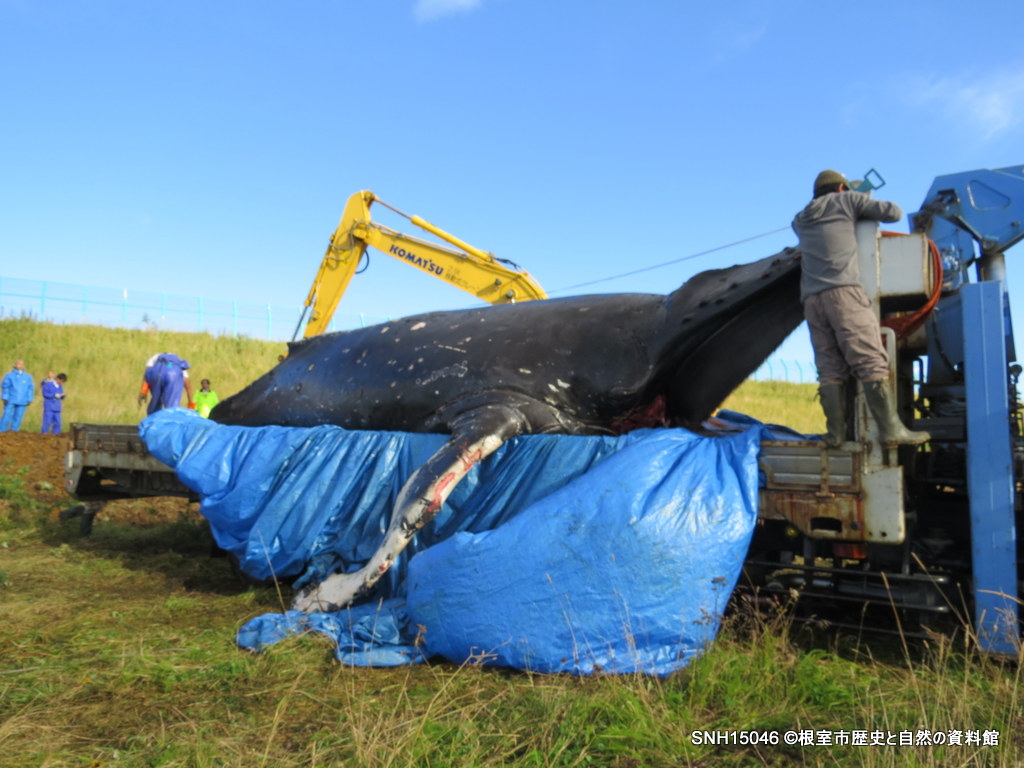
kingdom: Animalia
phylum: Chordata
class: Mammalia
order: Cetacea
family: Balaenopteridae
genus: Megaptera
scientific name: Megaptera novaeangliae
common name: Humpback whale
